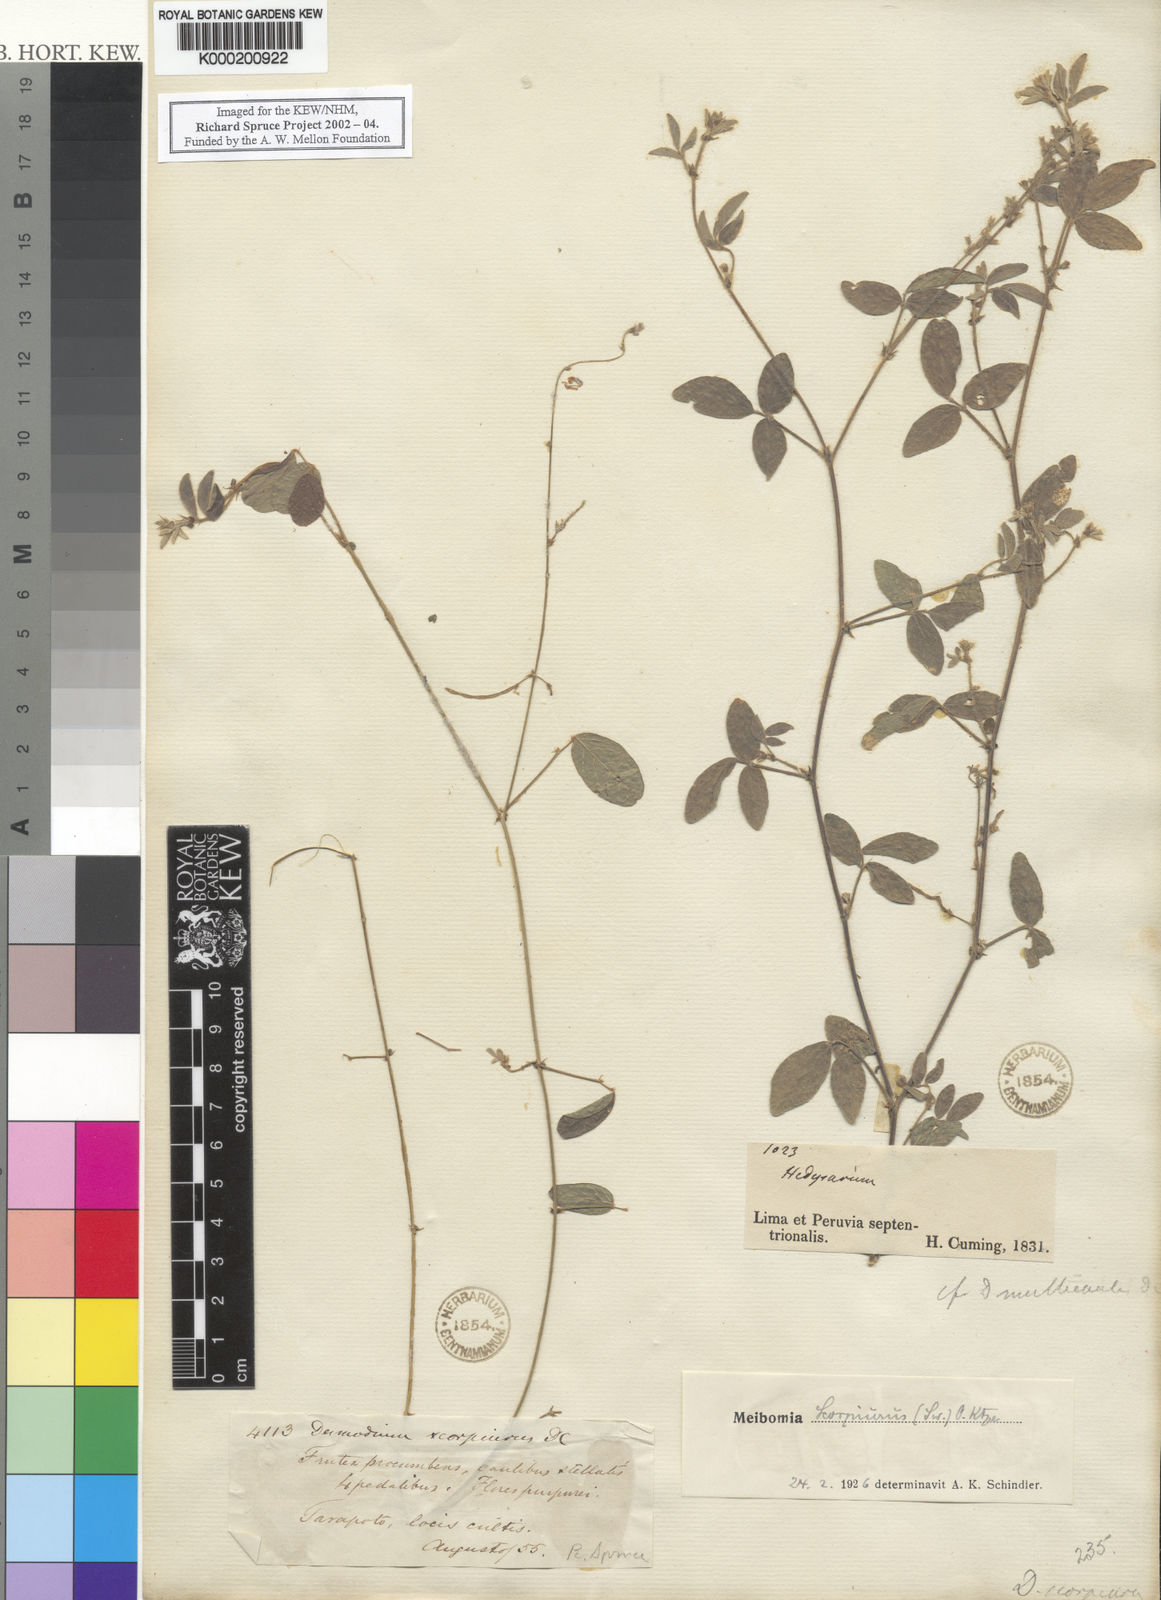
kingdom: Plantae
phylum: Tracheophyta
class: Magnoliopsida
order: Fabales
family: Fabaceae
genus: Desmodium
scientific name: Desmodium scorpiurus
